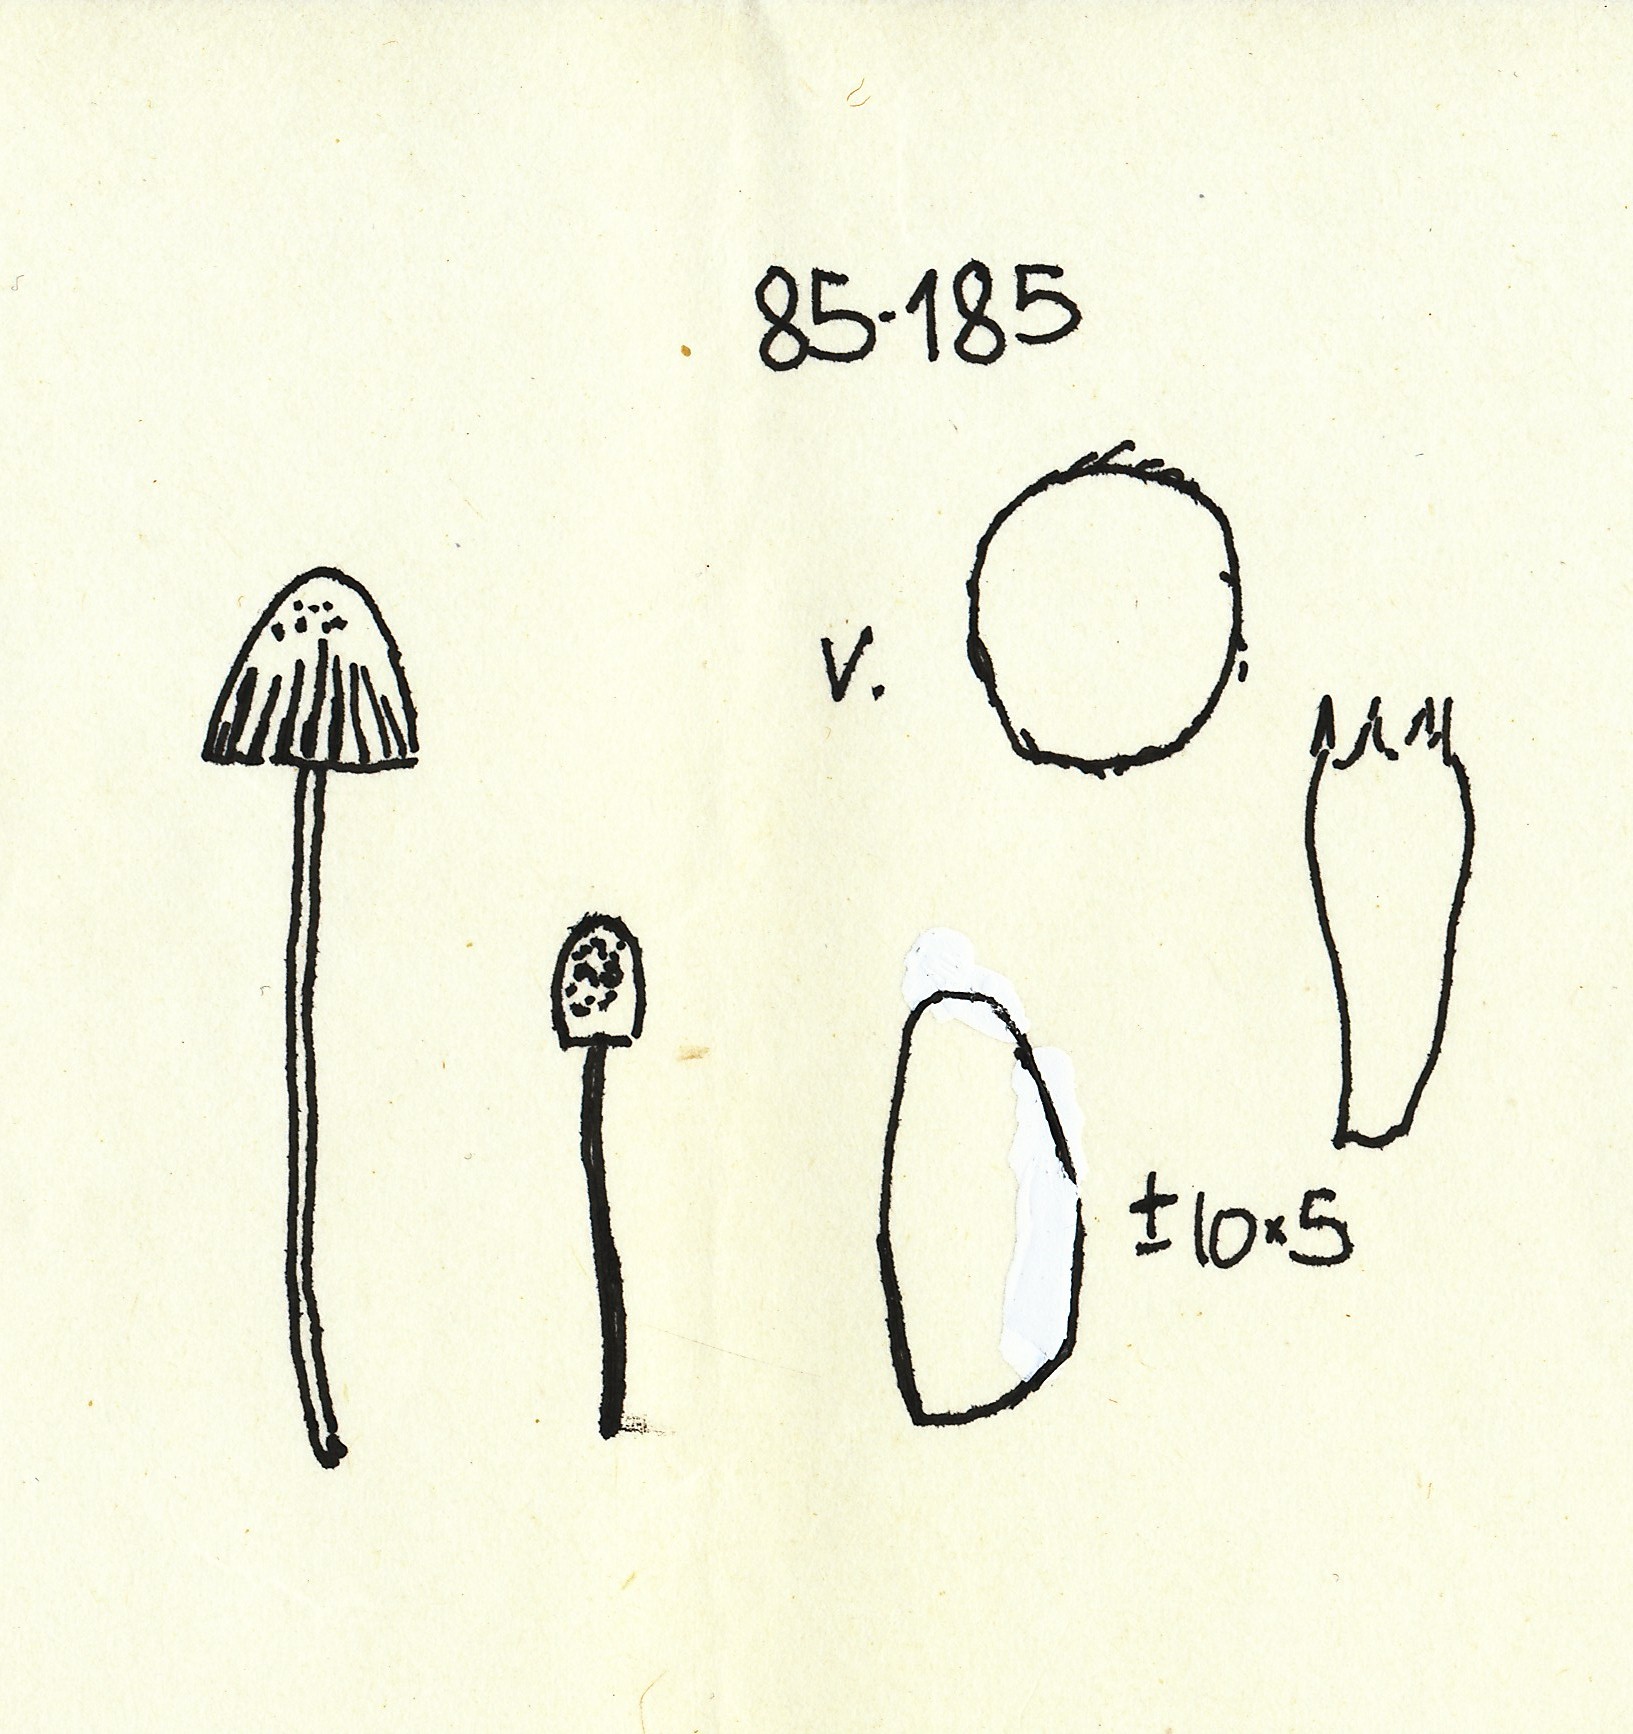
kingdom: Fungi
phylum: Basidiomycota
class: Agaricomycetes
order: Agaricales
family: Psathyrellaceae
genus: Coprinopsis
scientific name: Coprinopsis candidata
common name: hvidklædt blækhat
